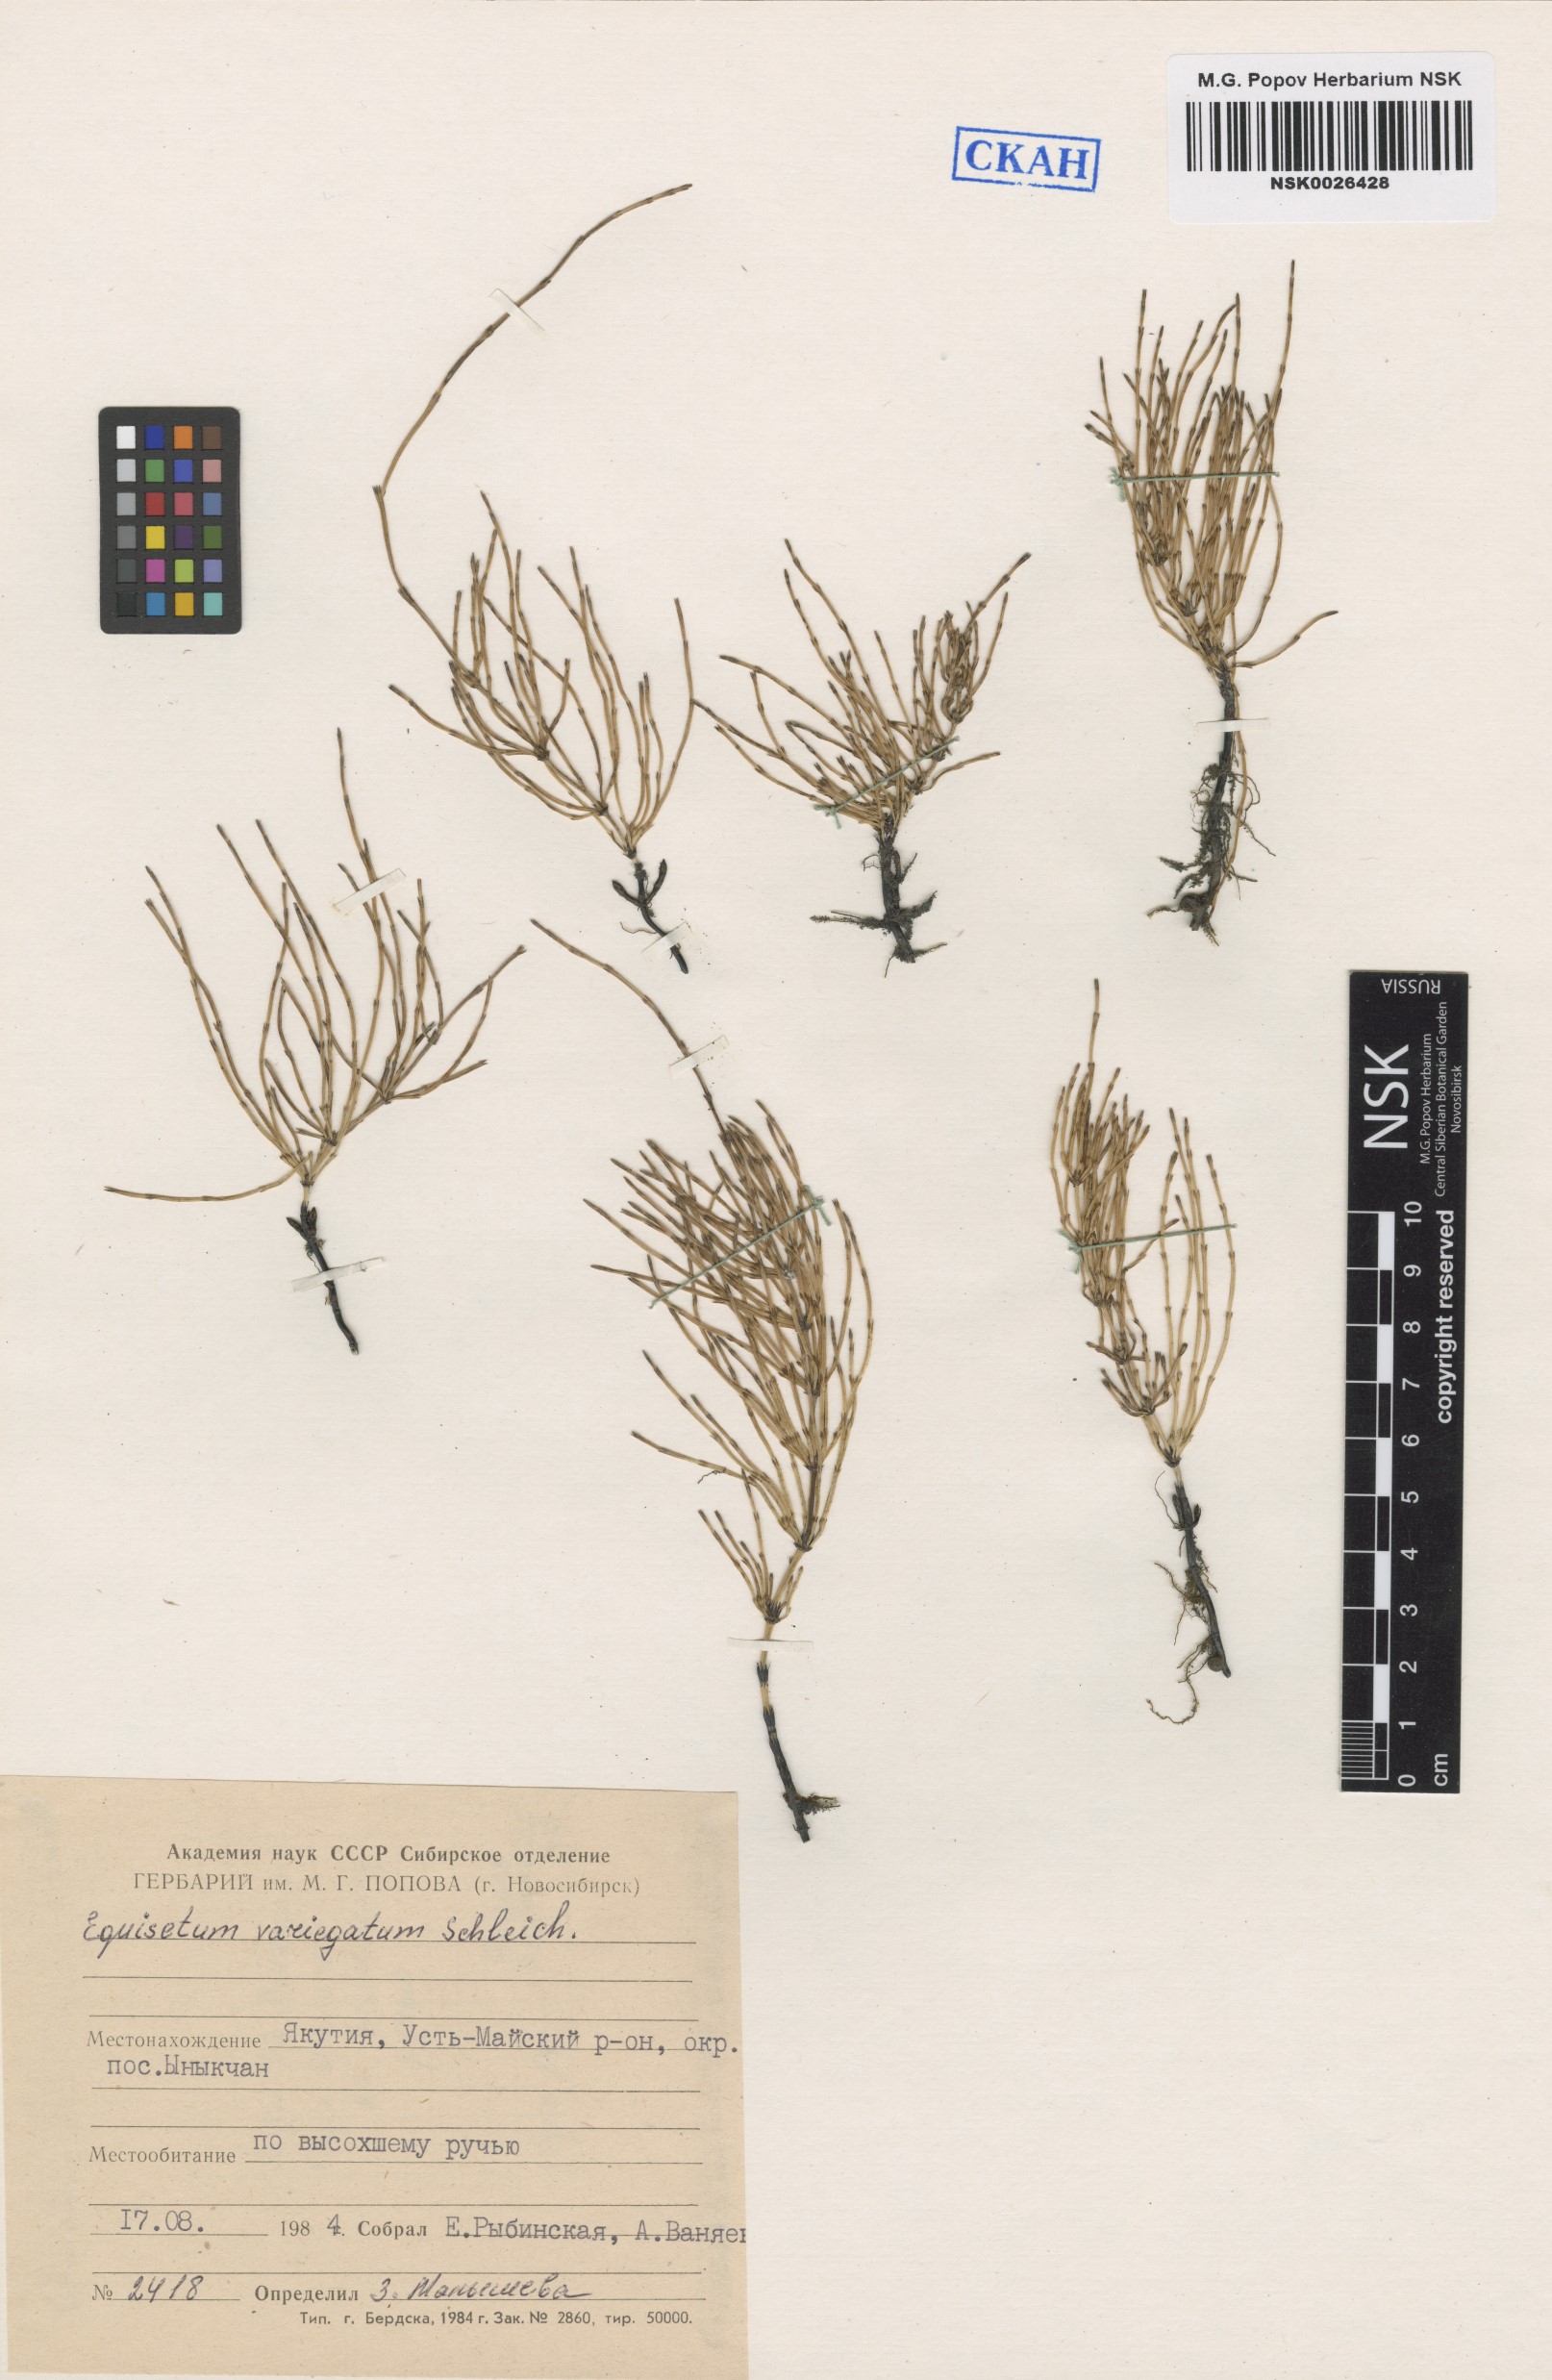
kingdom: Plantae
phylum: Tracheophyta
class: Polypodiopsida
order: Equisetales
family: Equisetaceae
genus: Equisetum
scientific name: Equisetum variegatum
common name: Variegated horsetail
